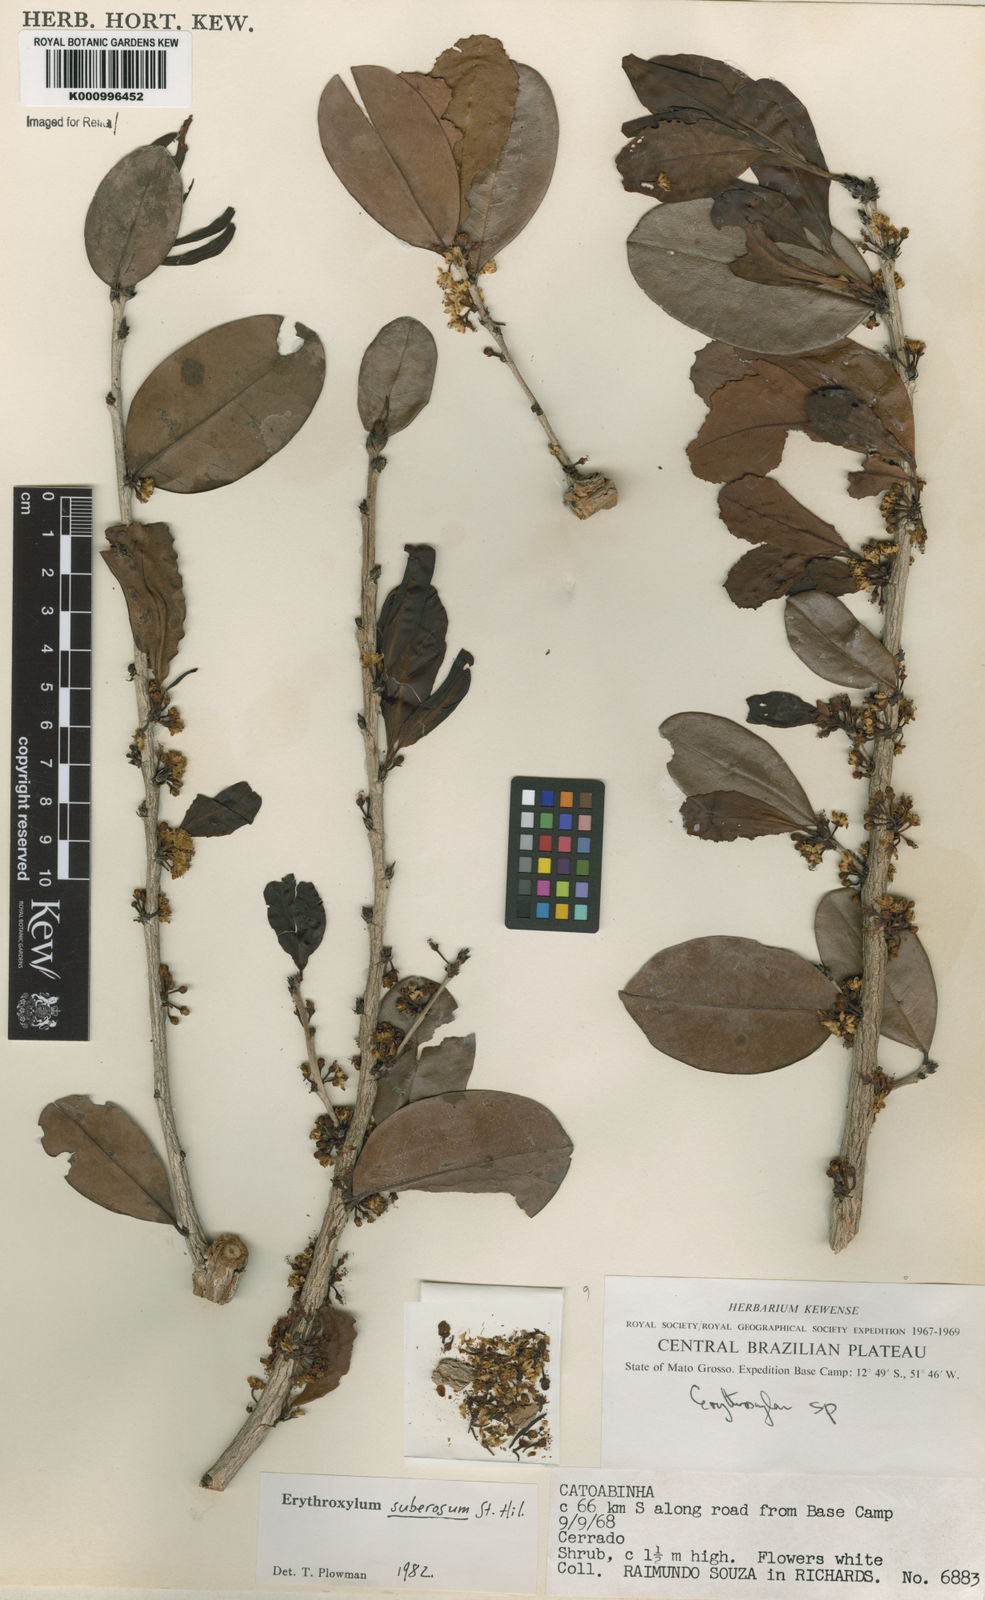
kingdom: Plantae
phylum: Tracheophyta
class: Magnoliopsida
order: Malpighiales
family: Erythroxylaceae
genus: Erythroxylum
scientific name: Erythroxylum suberosum
